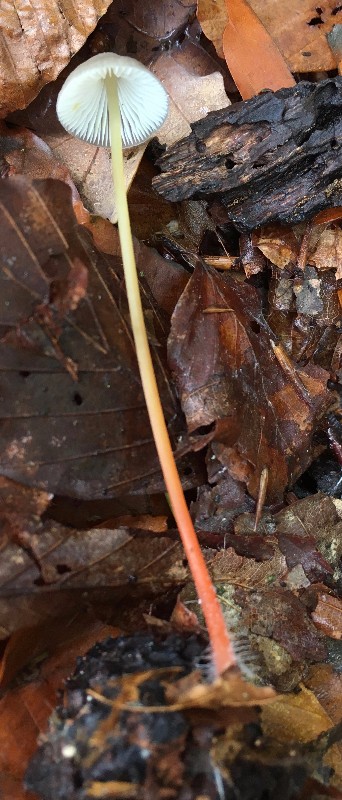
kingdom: Fungi
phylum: Basidiomycota
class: Agaricomycetes
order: Agaricales
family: Mycenaceae
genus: Mycena
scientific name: Mycena crocata
